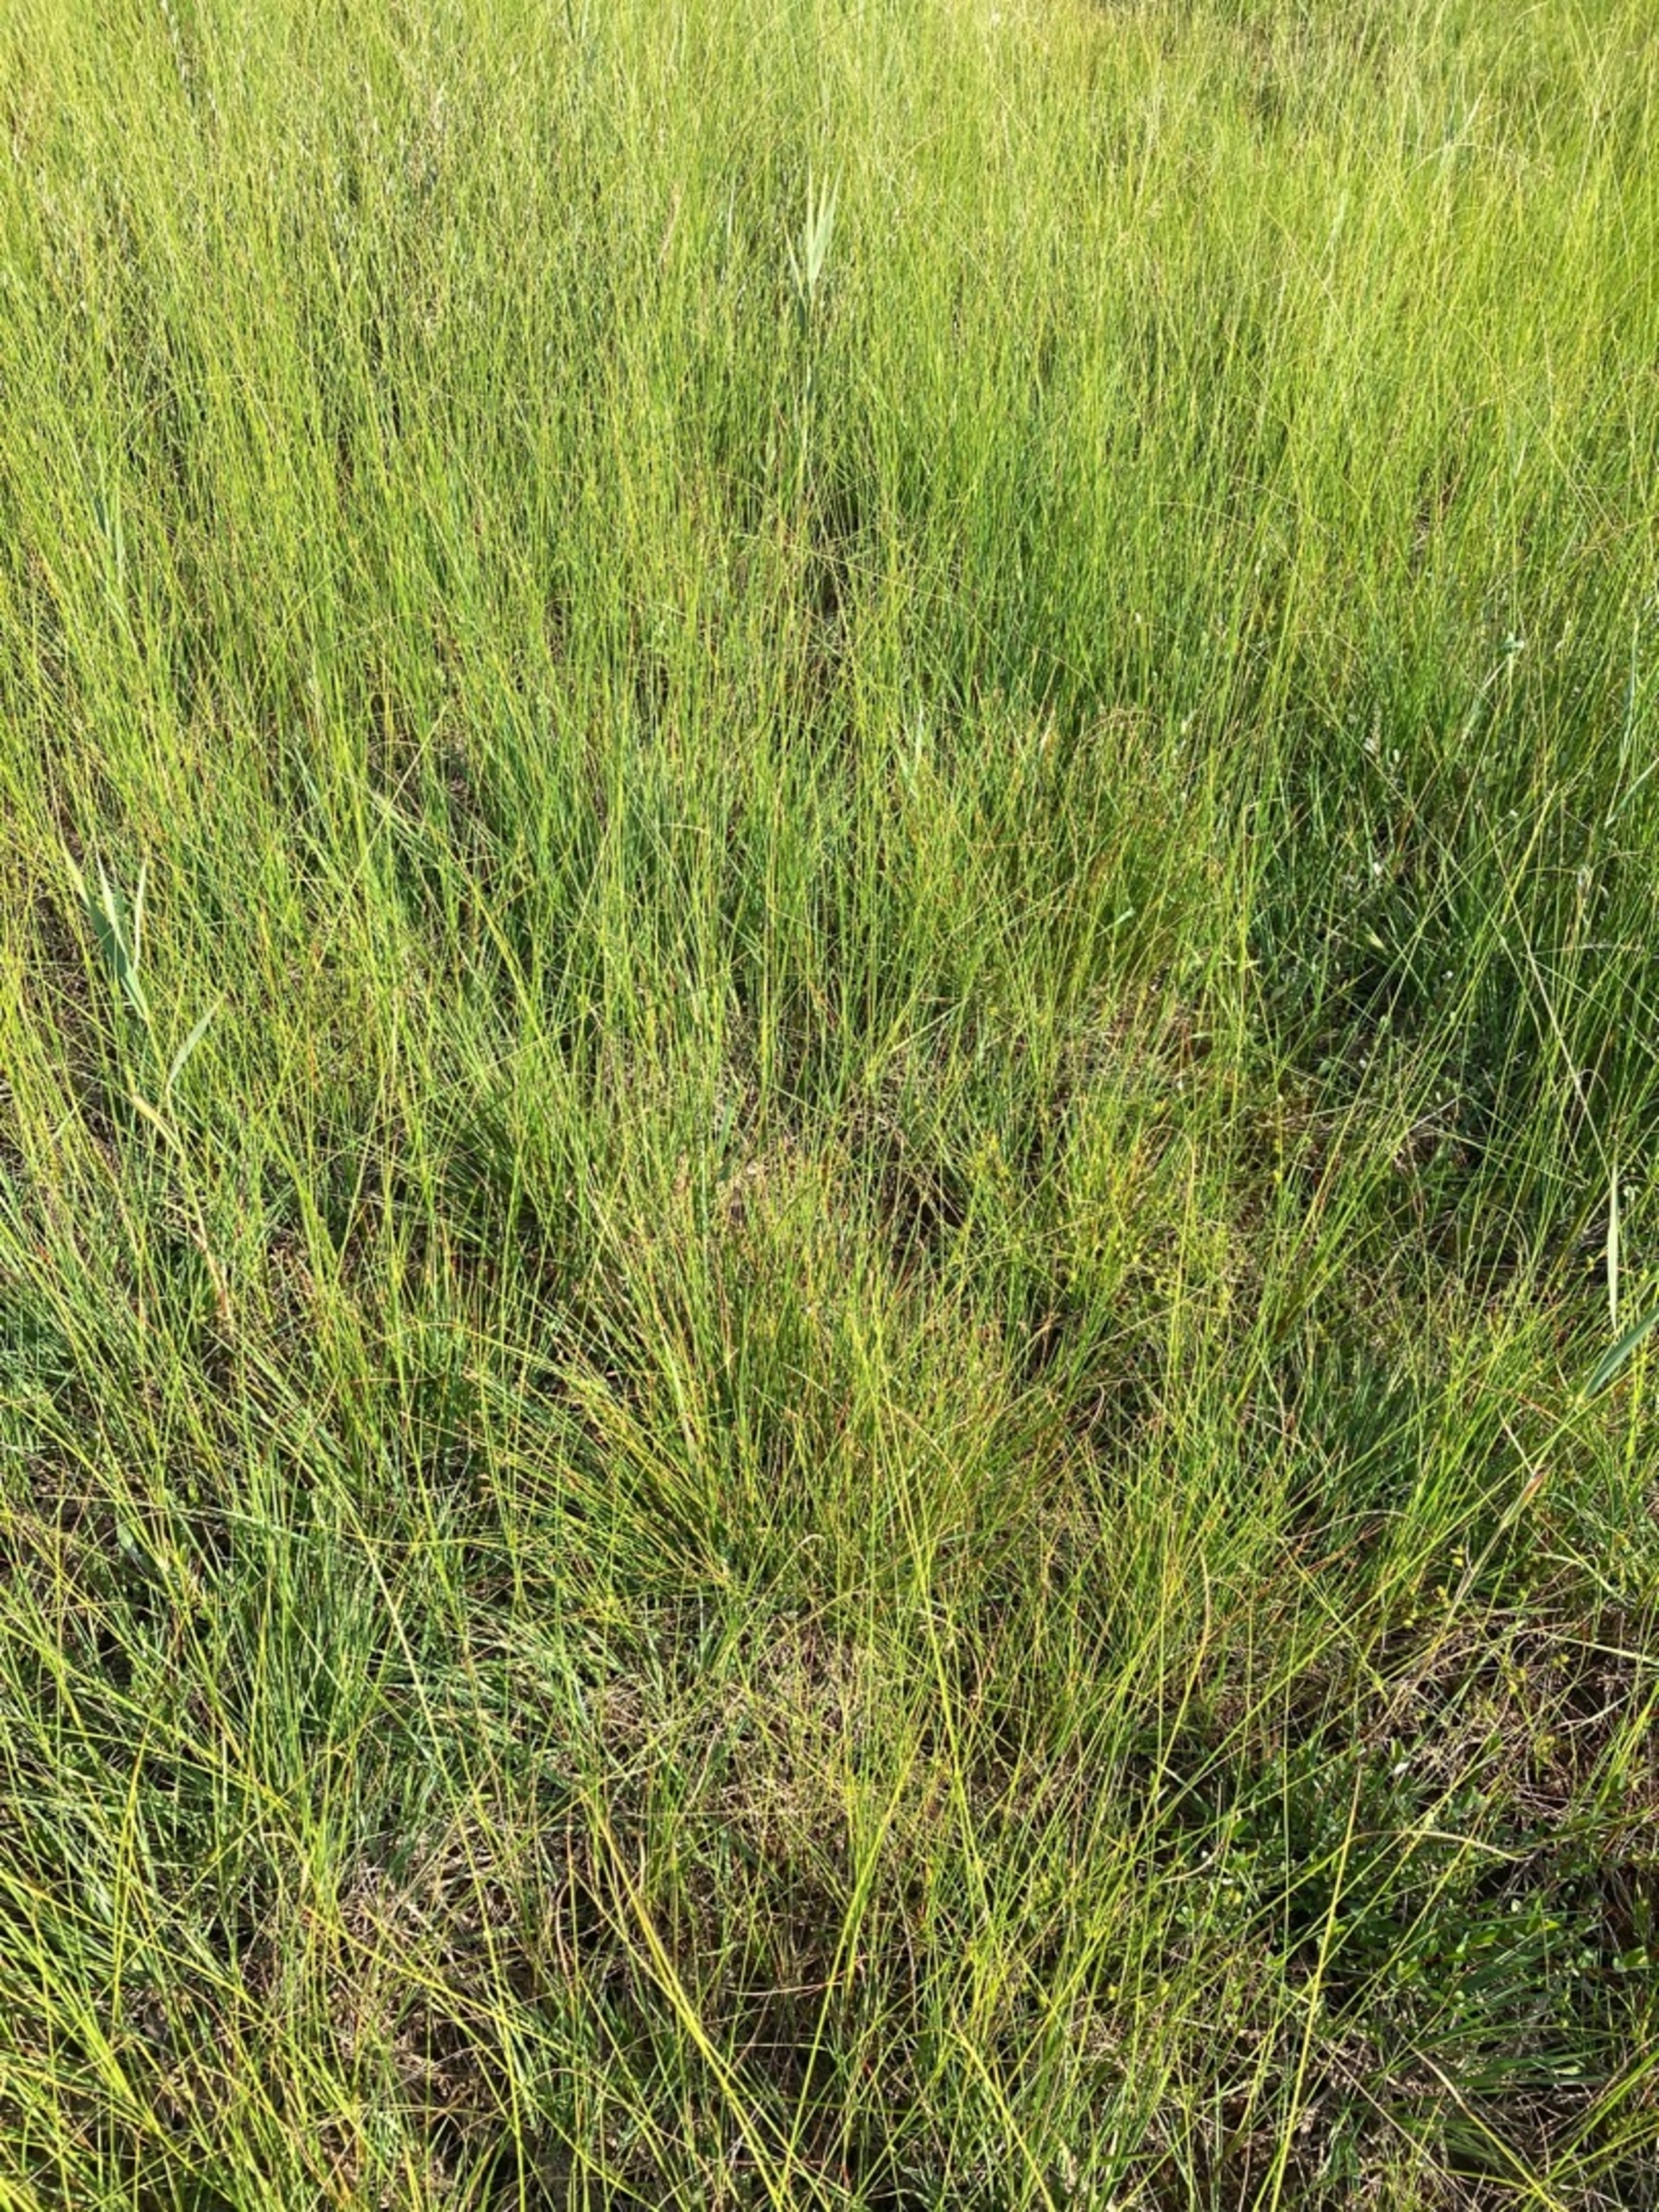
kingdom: Plantae
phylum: Tracheophyta
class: Liliopsida
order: Poales
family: Cyperaceae
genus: Carex
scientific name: Carex lasiocarpa
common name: Tråd-star
